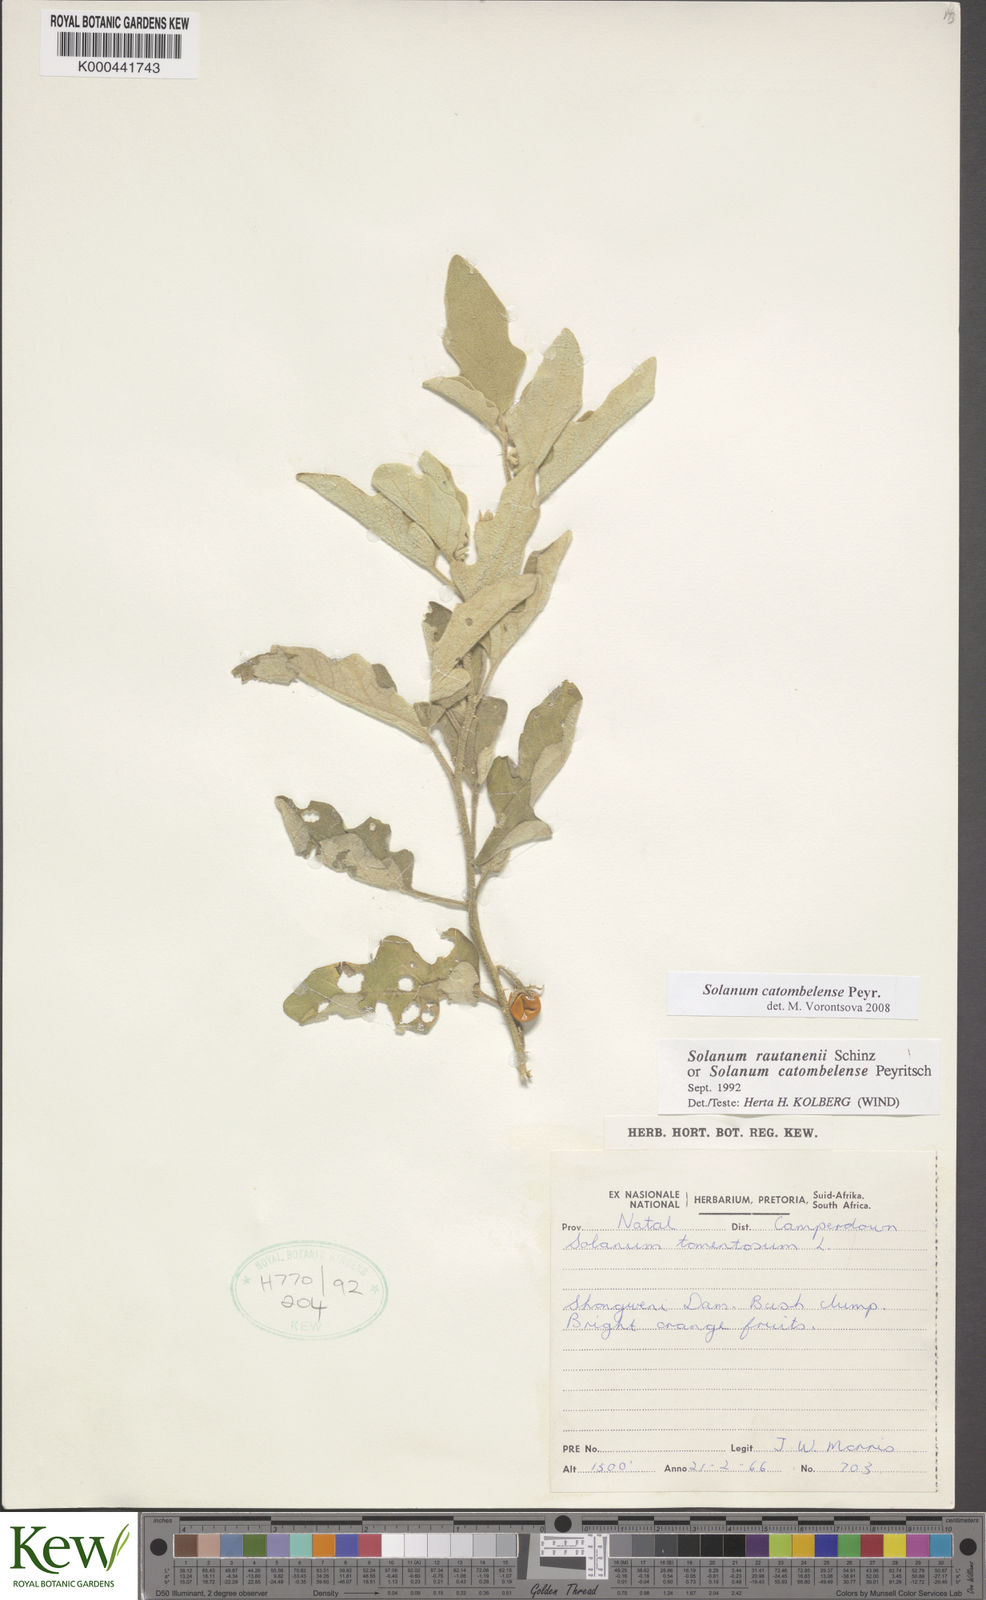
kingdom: Plantae
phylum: Tracheophyta
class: Magnoliopsida
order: Solanales
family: Solanaceae
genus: Solanum
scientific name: Solanum catombelense
